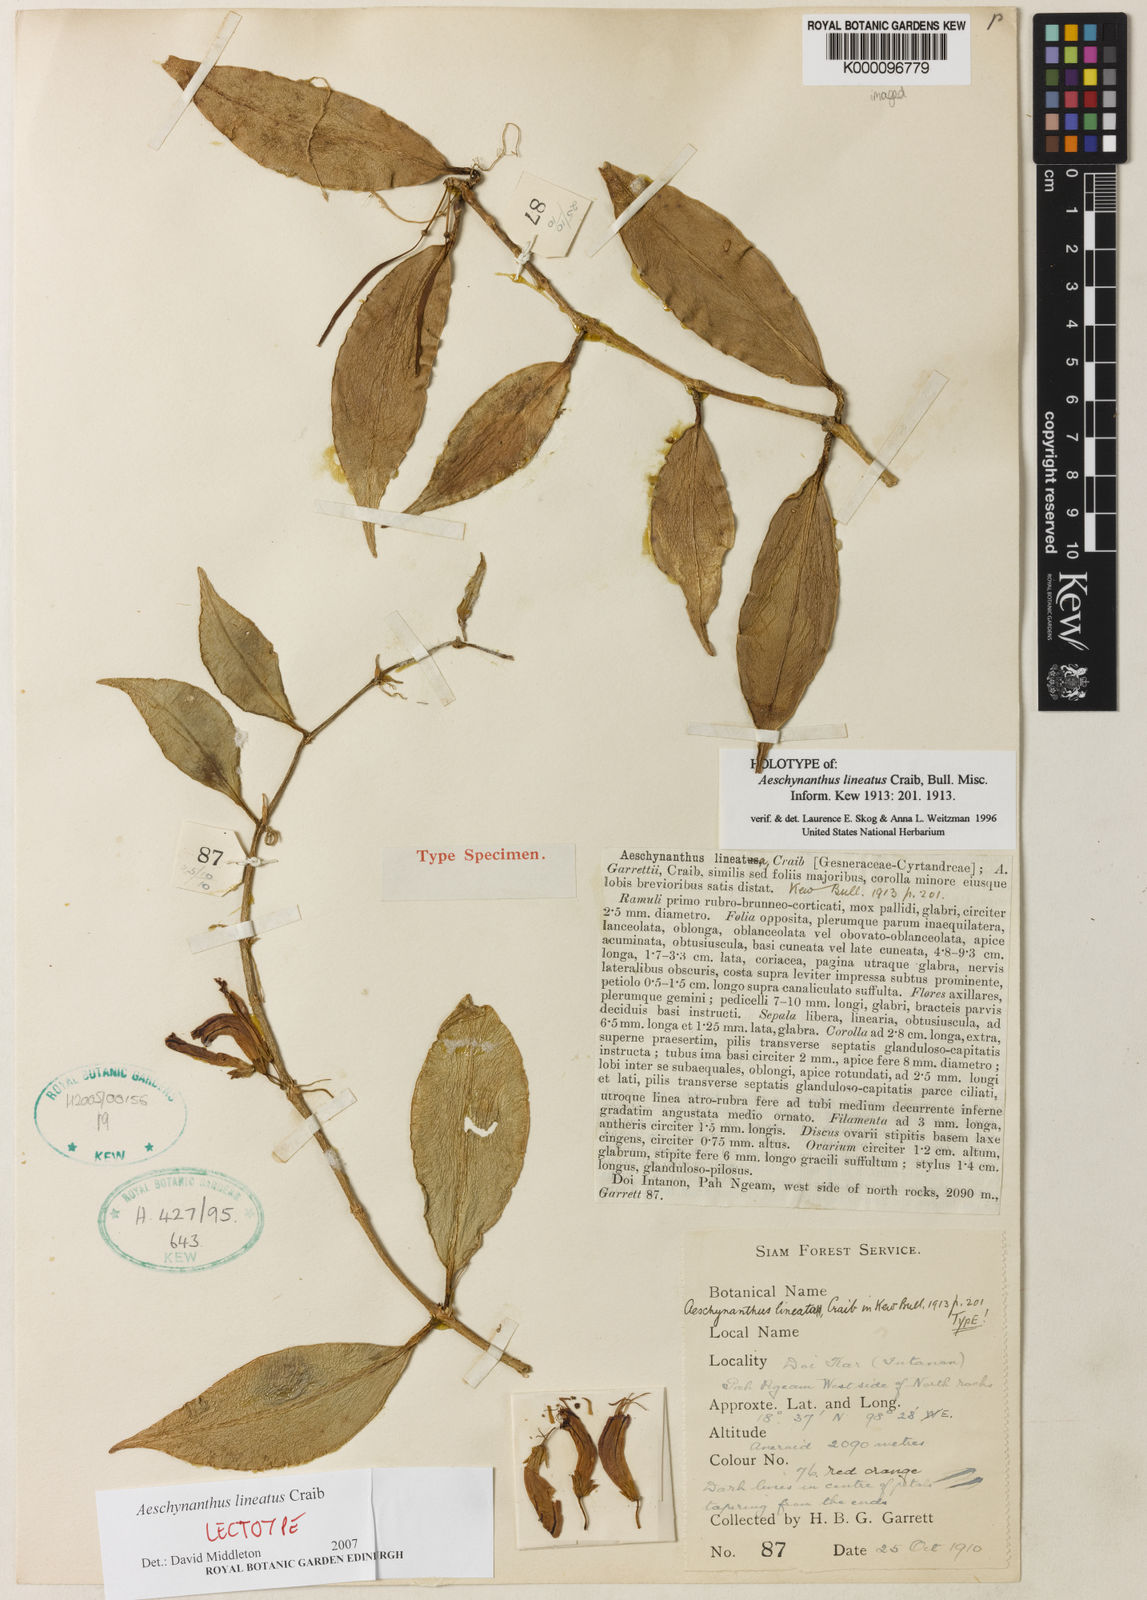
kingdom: Plantae
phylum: Tracheophyta
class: Magnoliopsida
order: Lamiales
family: Gesneriaceae
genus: Aeschynanthus
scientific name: Aeschynanthus lineatus
